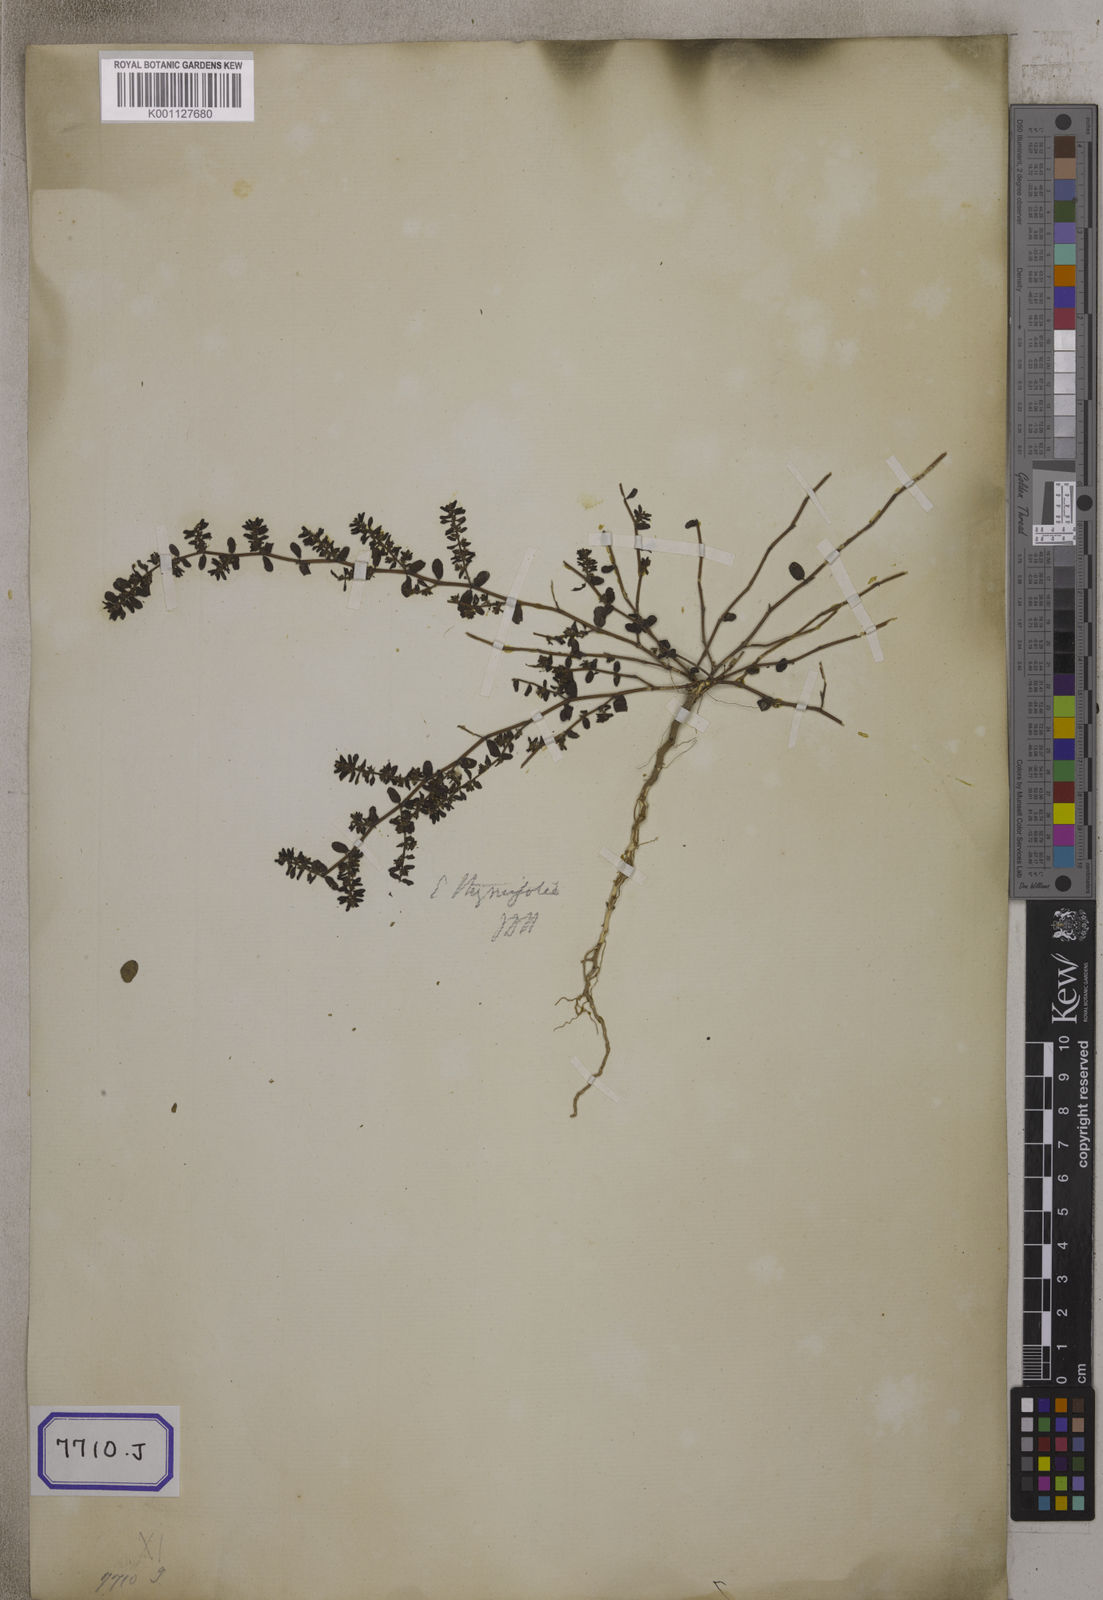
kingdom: Plantae
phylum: Tracheophyta
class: Magnoliopsida
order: Malpighiales
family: Euphorbiaceae
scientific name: Euphorbiaceae
